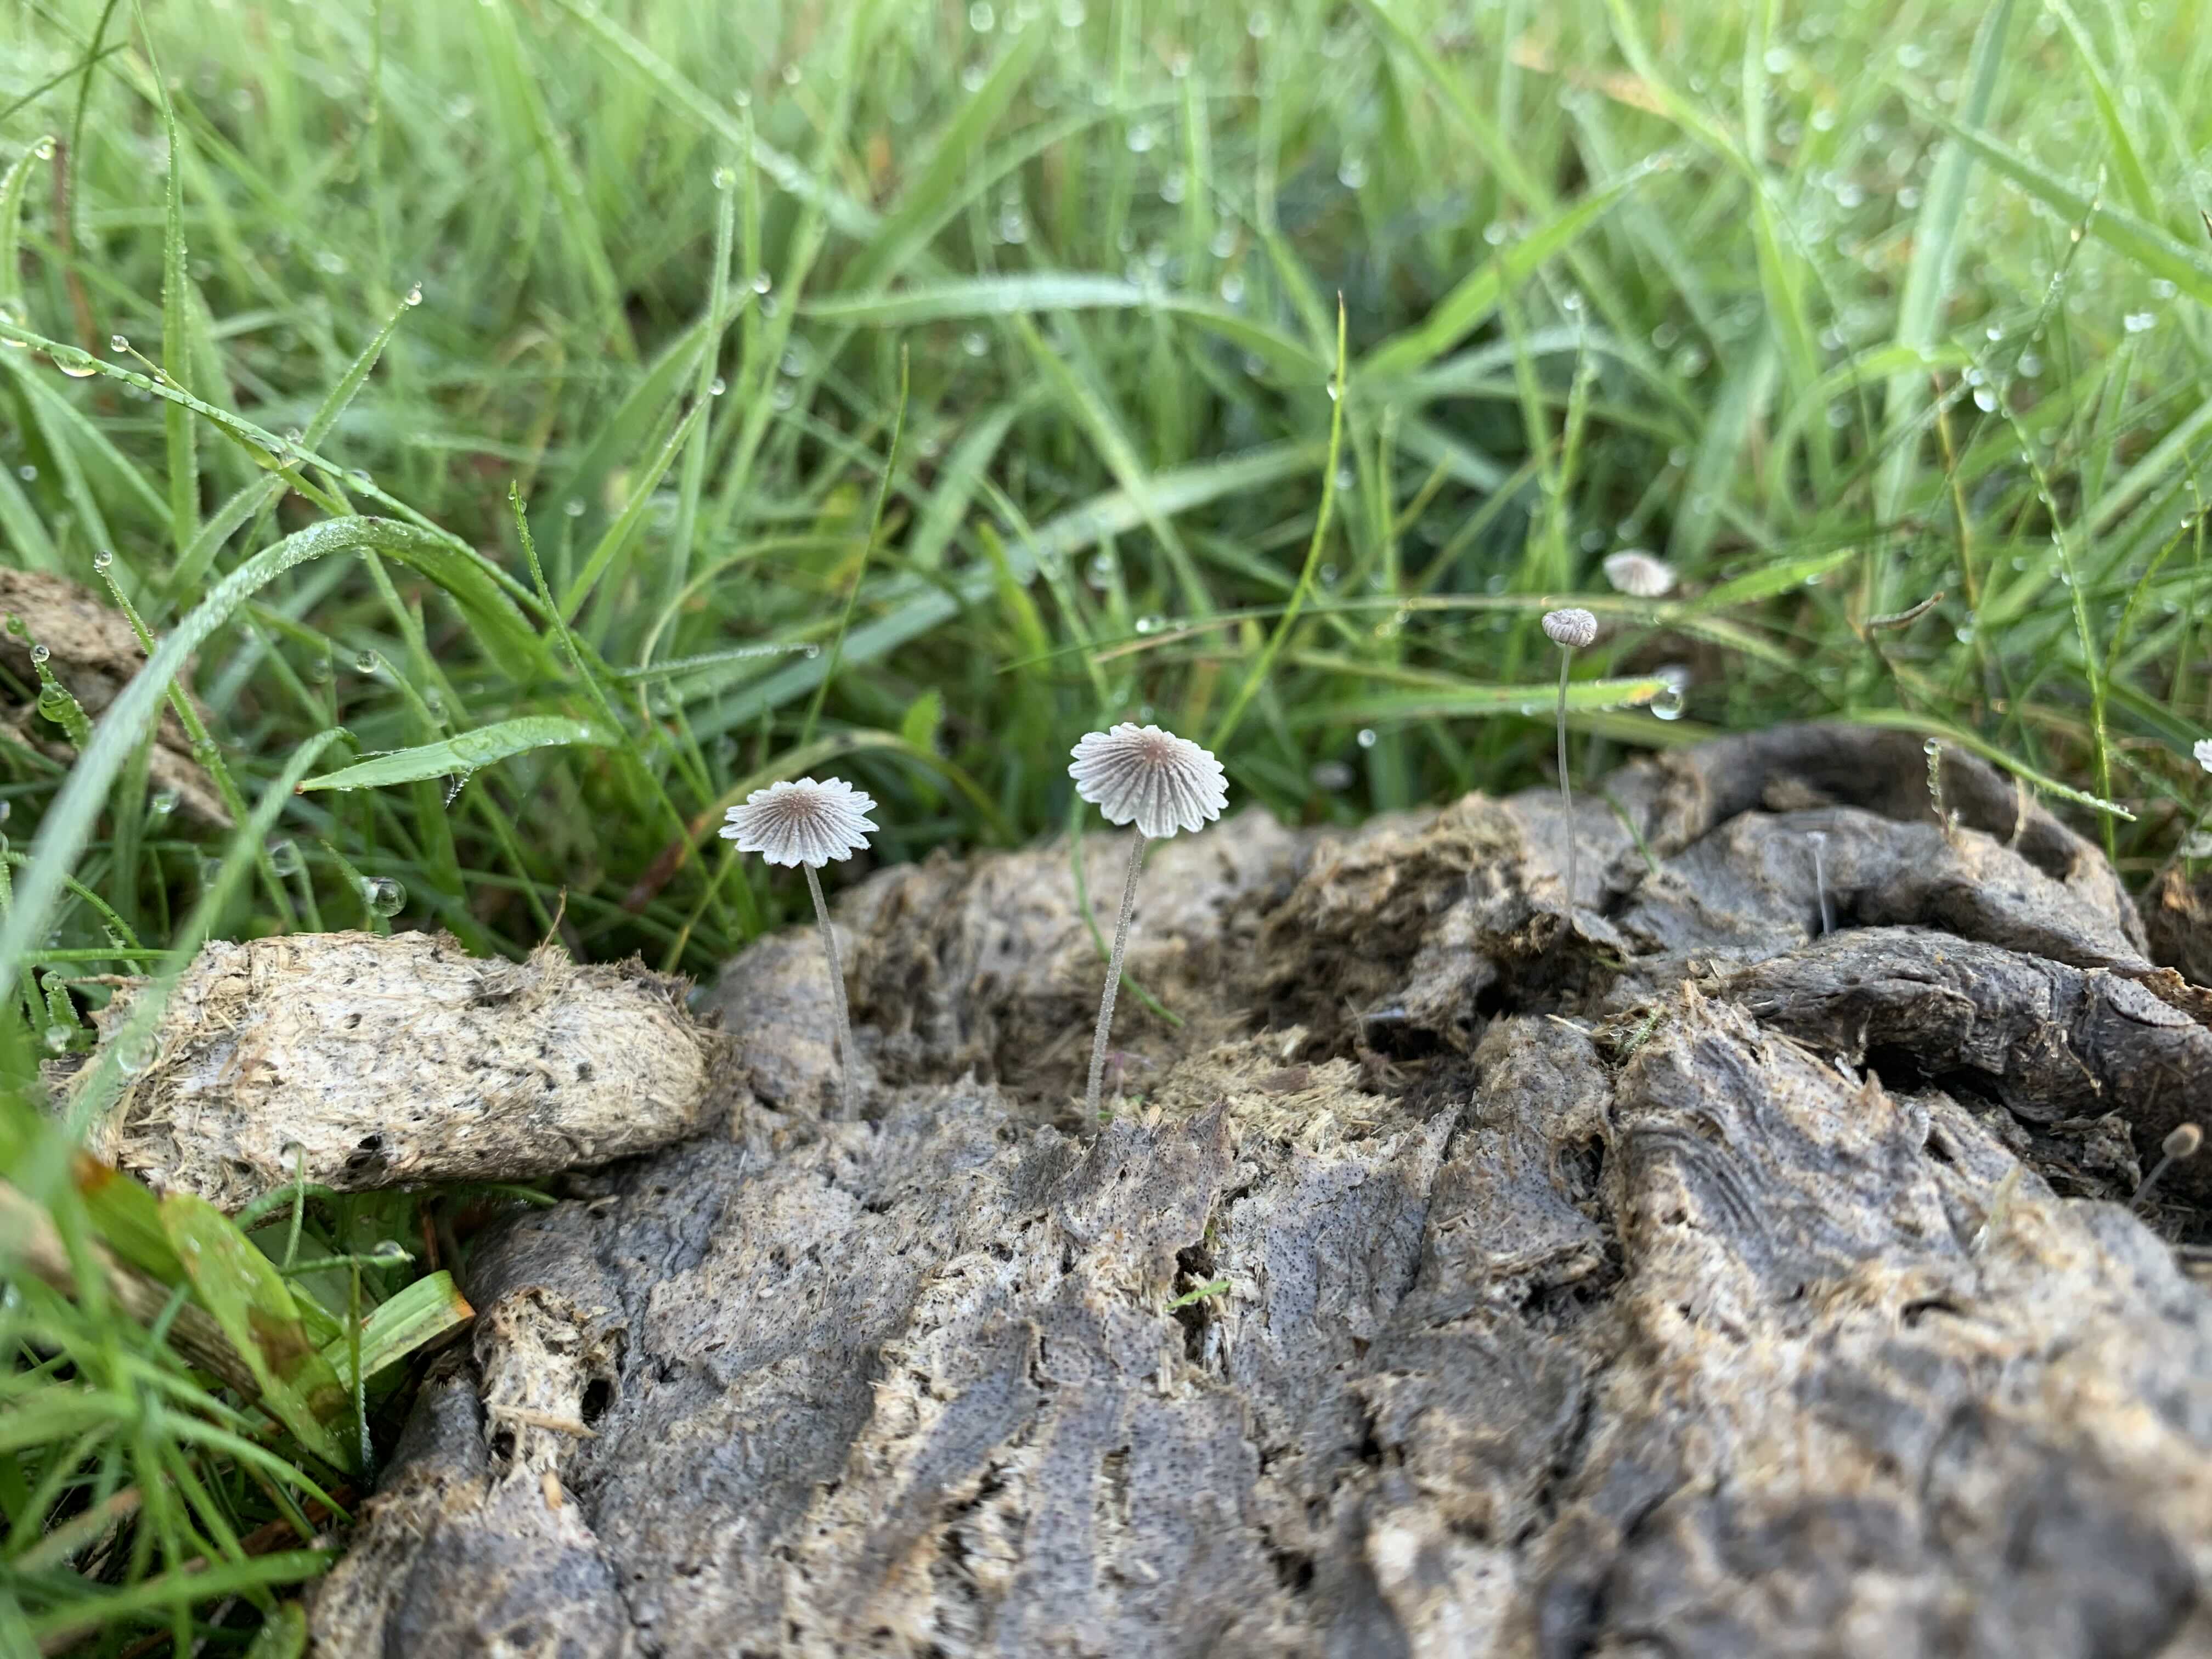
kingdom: Fungi
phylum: Basidiomycota
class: Agaricomycetes
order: Agaricales
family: Psathyrellaceae
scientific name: Psathyrellaceae
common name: mørkhatfamilien
